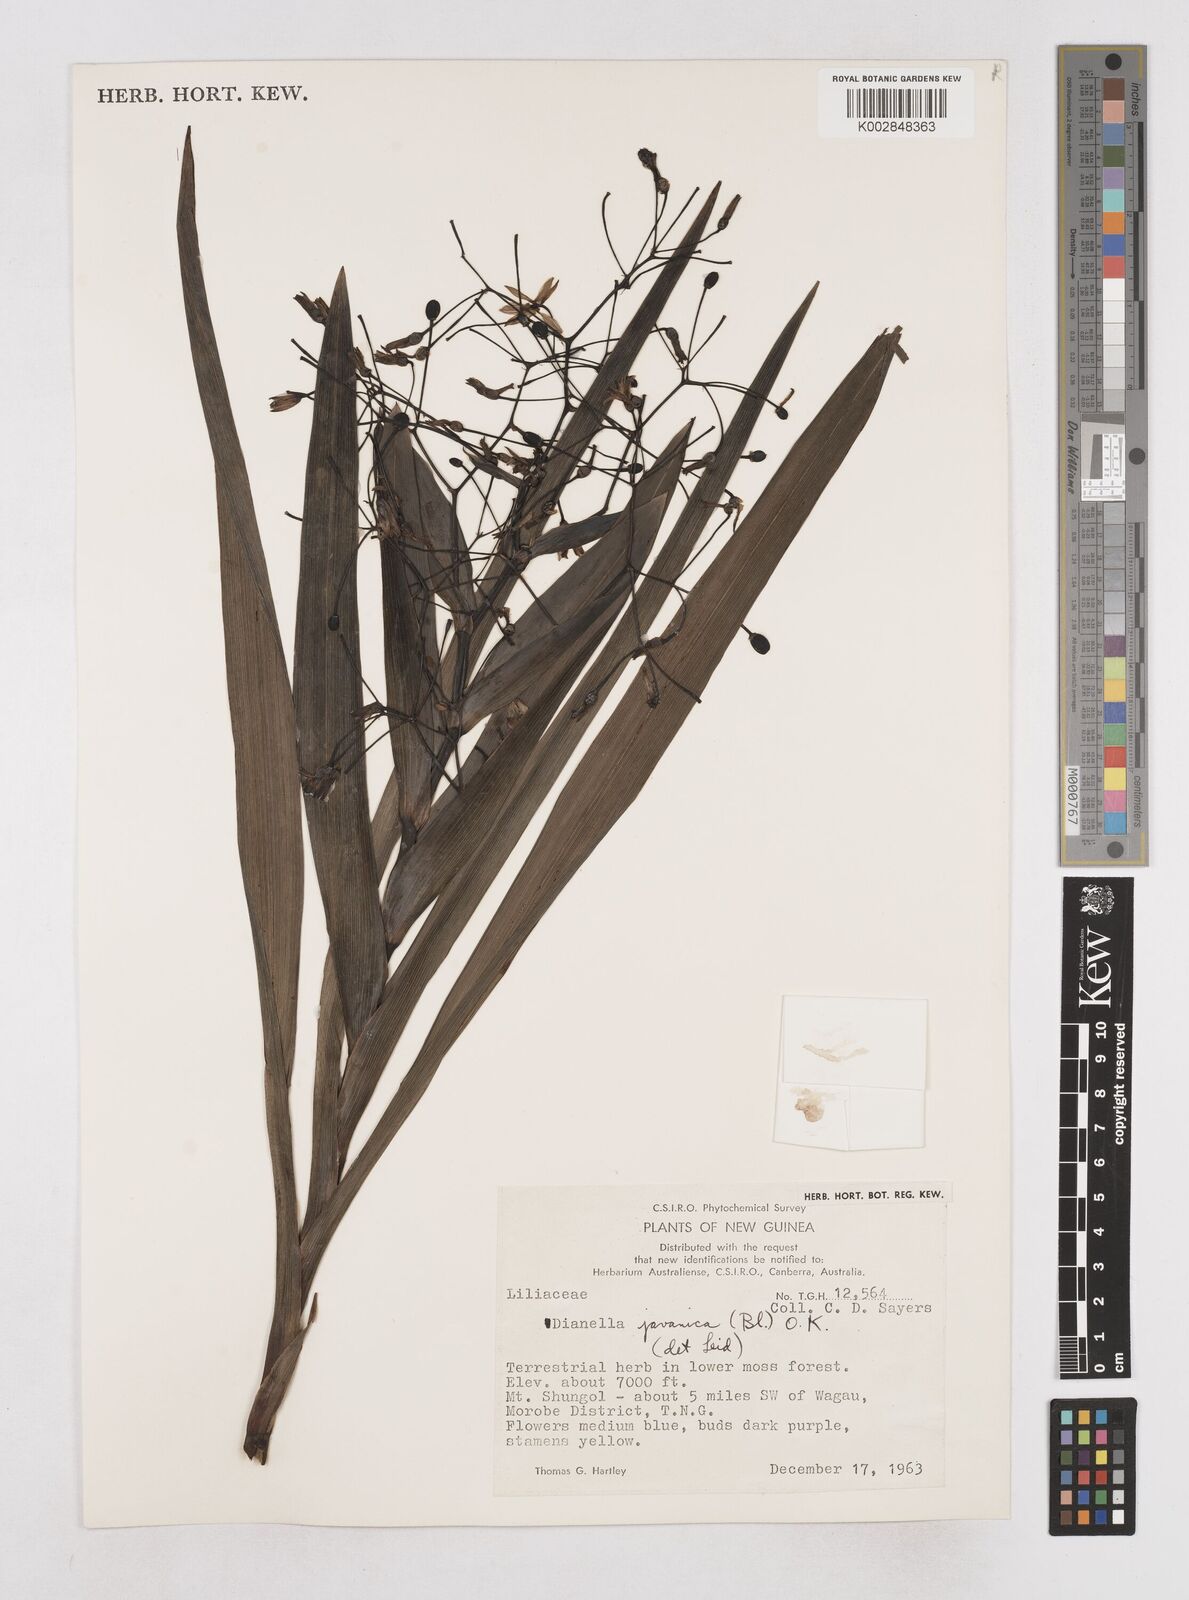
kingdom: Plantae
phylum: Tracheophyta
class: Liliopsida
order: Asparagales
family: Asphodelaceae
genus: Rhuacophila
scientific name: Rhuacophila javanica
